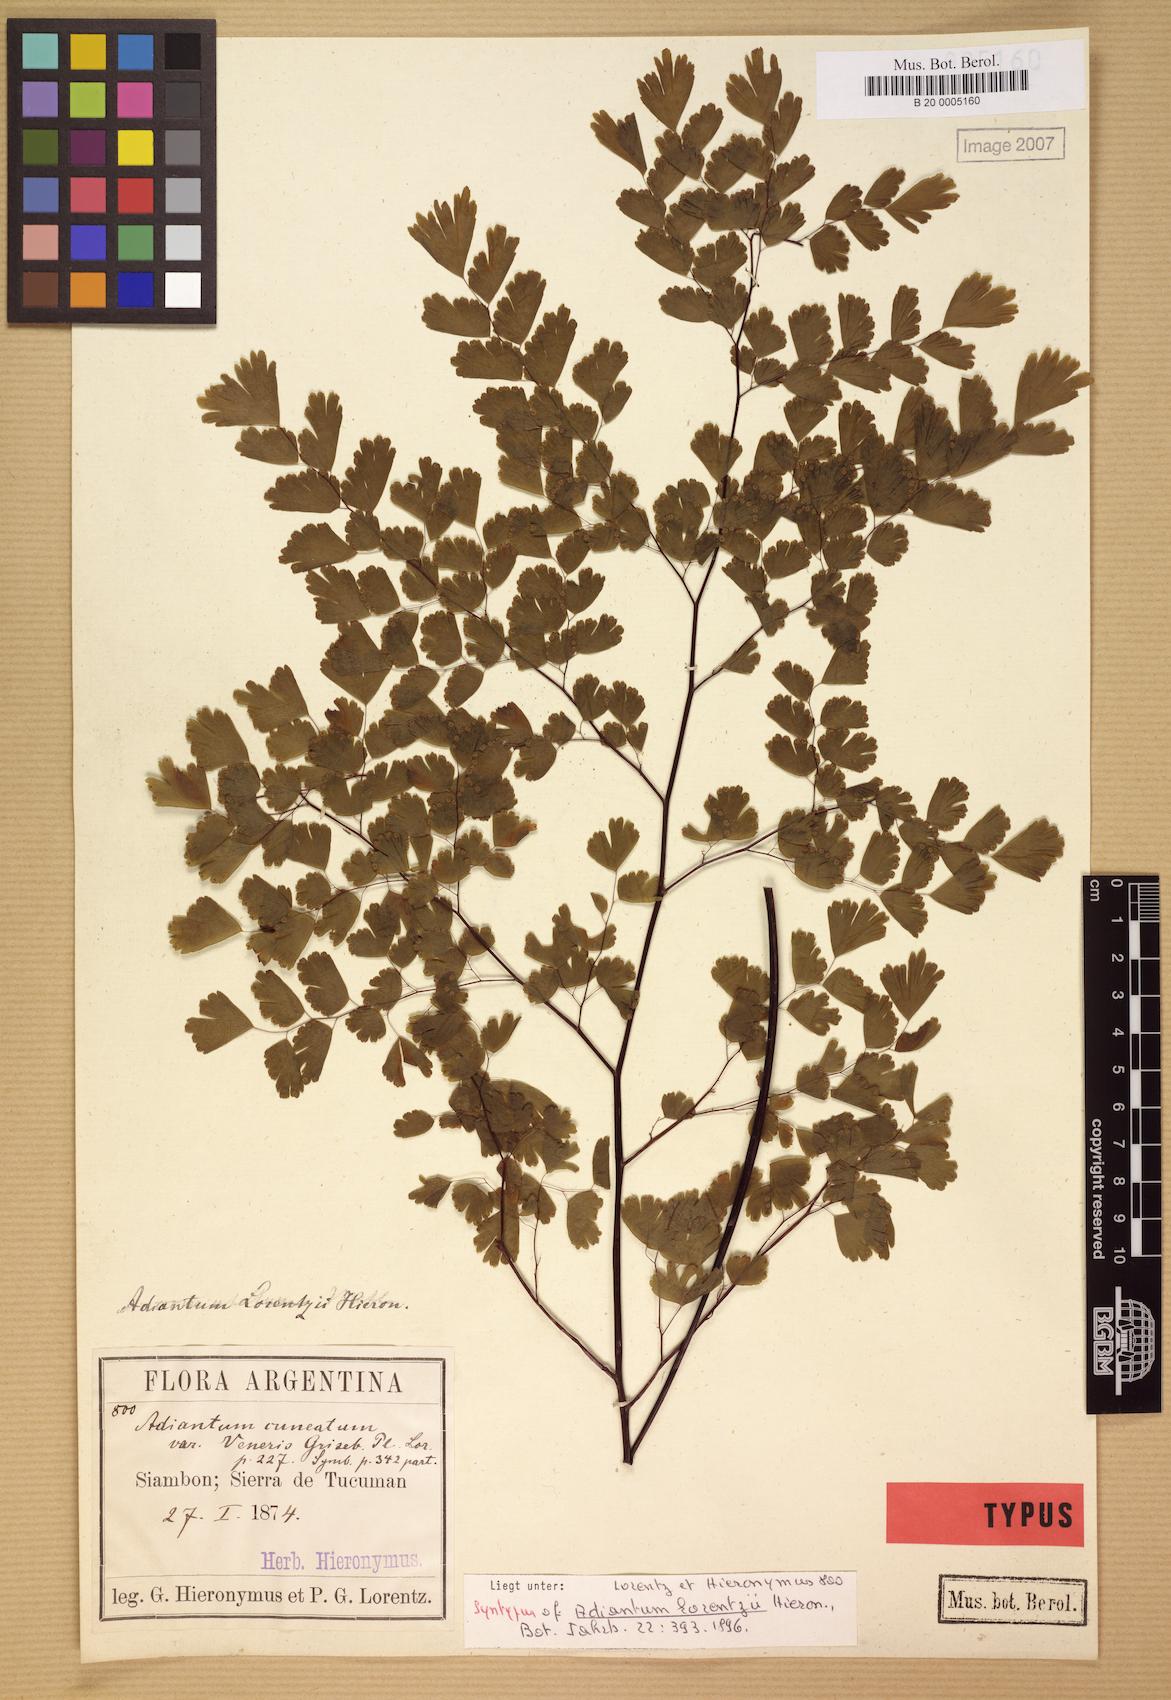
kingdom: Plantae
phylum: Tracheophyta
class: Polypodiopsida
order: Polypodiales
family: Pteridaceae
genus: Adiantum
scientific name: Adiantum lorentzii
